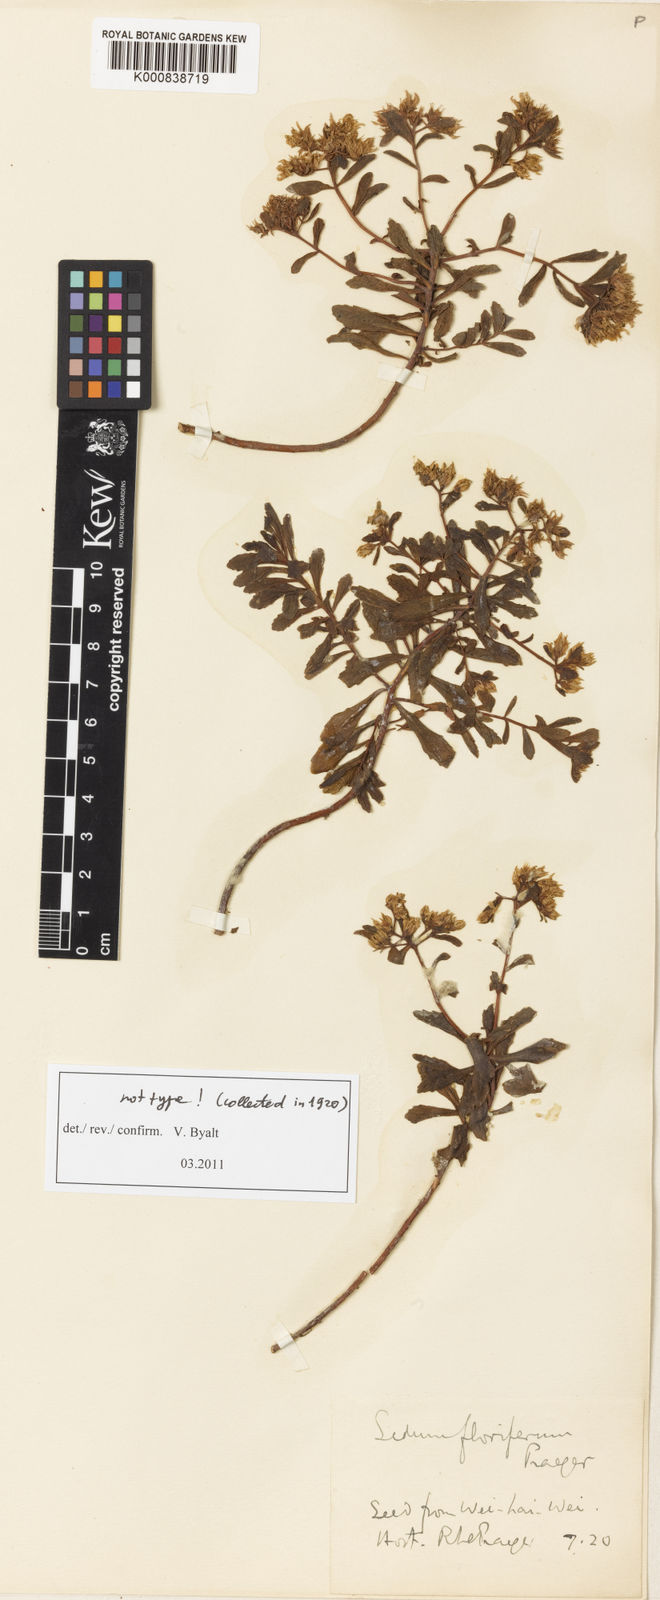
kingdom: Plantae
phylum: Tracheophyta
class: Magnoliopsida
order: Saxifragales
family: Crassulaceae
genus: Phedimus
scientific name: Phedimus kamtschaticus
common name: Orange stonecrop
